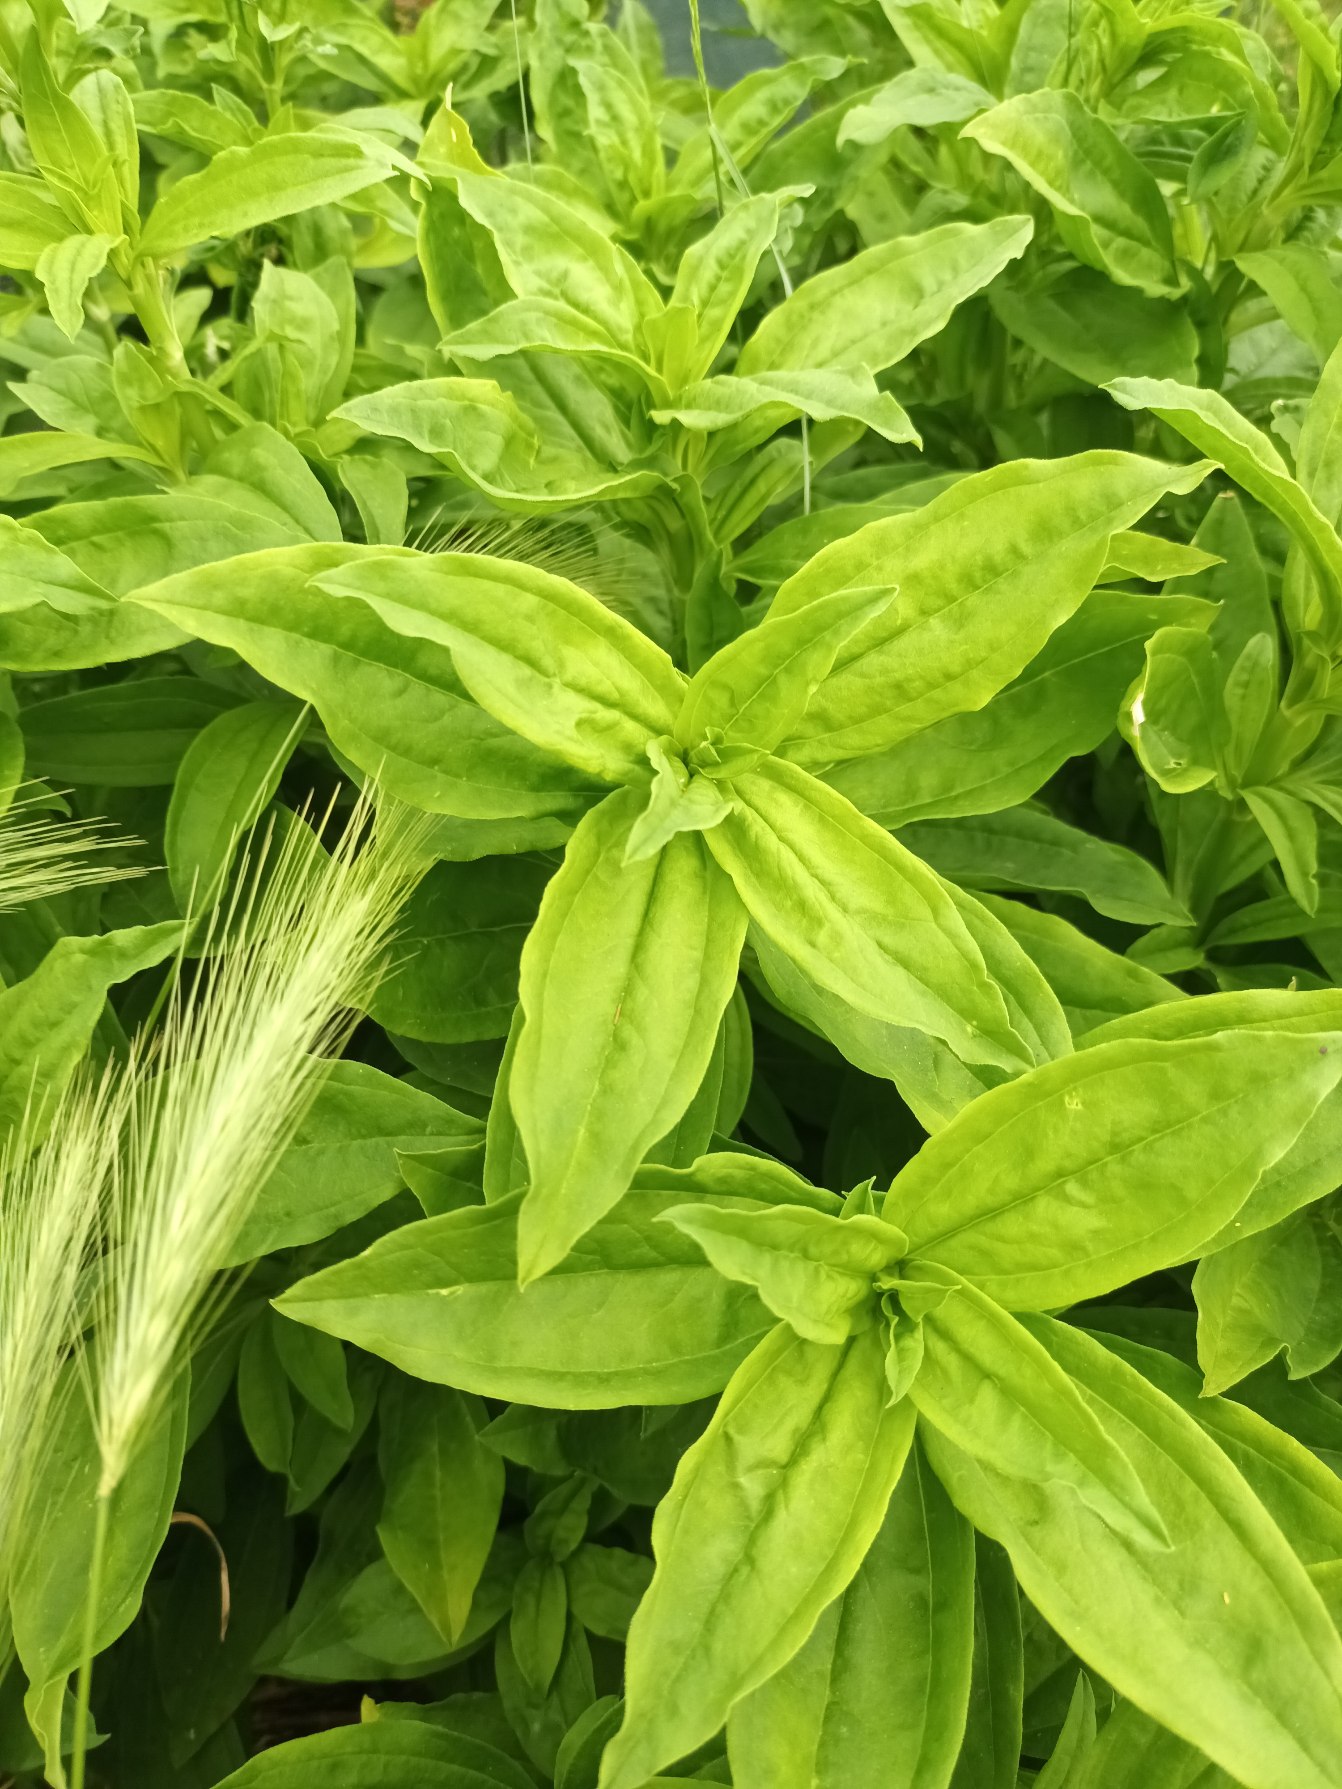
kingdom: Plantae
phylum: Tracheophyta
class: Magnoliopsida
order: Caryophyllales
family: Caryophyllaceae
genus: Saponaria
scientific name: Saponaria officinalis
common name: Sæbeurt
